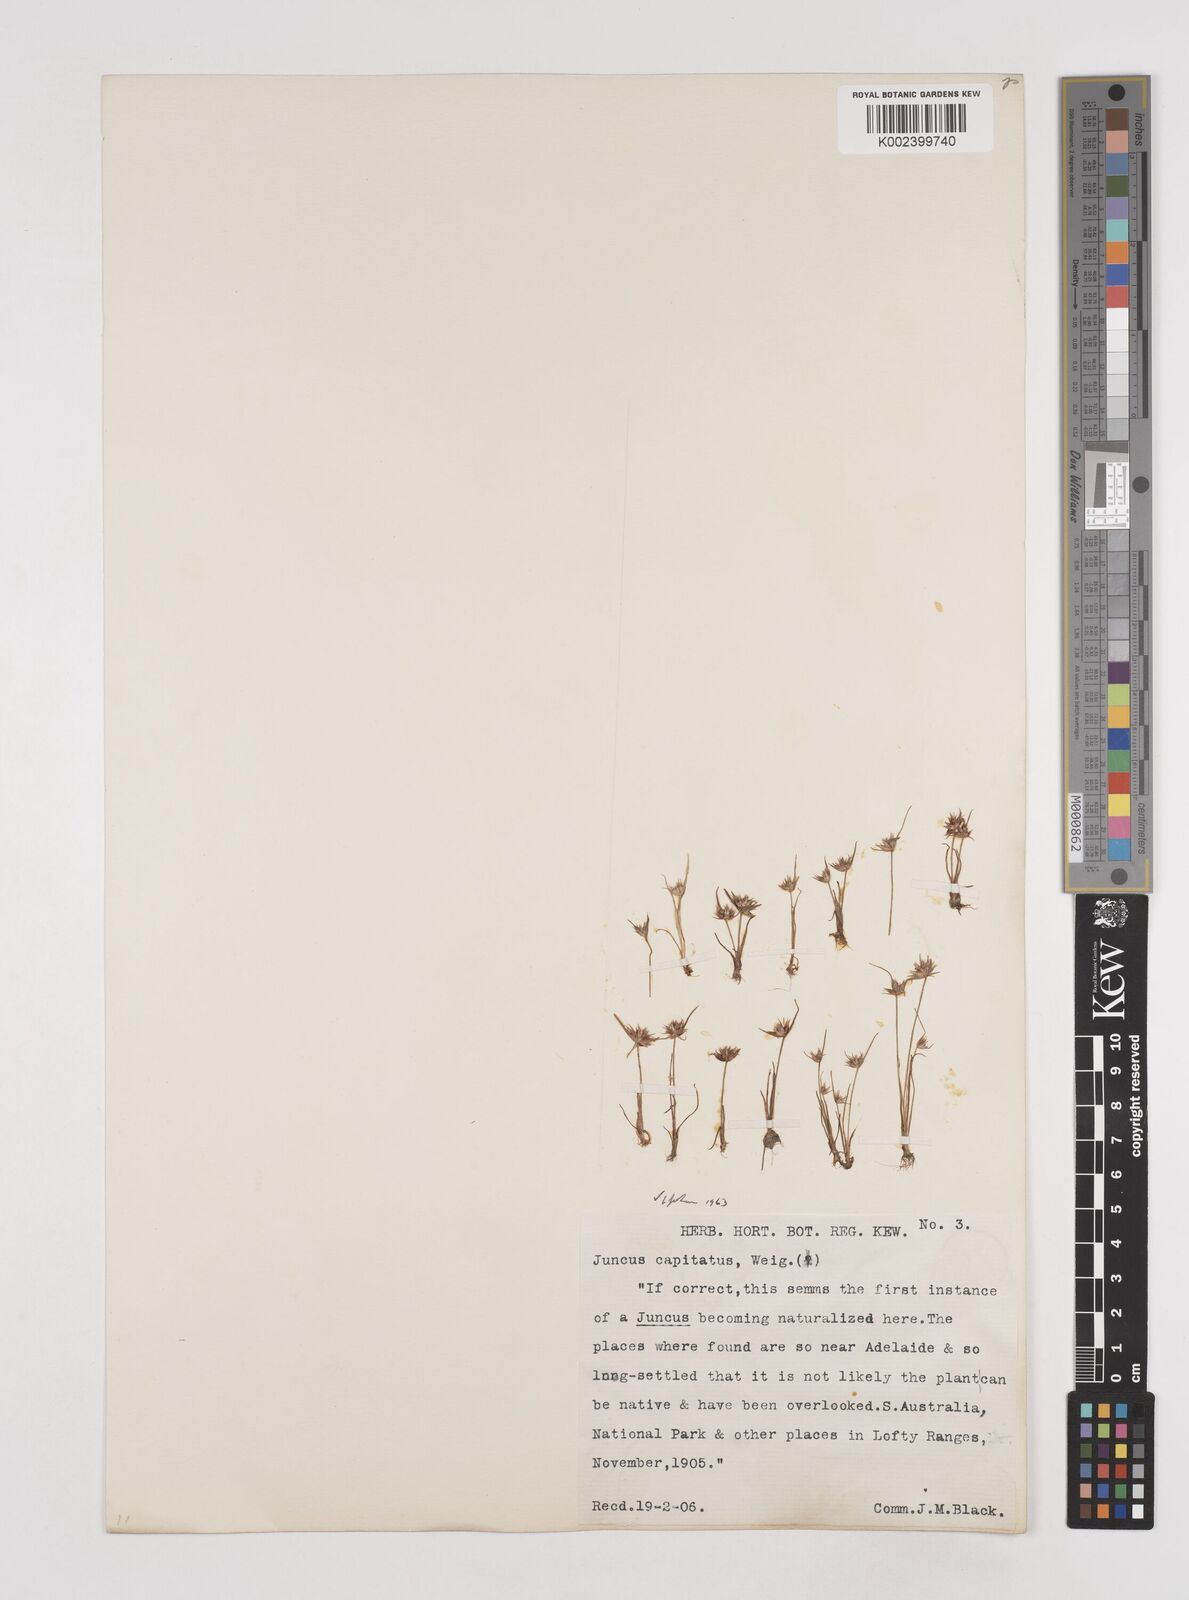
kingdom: Plantae
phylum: Tracheophyta
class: Liliopsida
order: Poales
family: Juncaceae
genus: Juncus
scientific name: Juncus capitatus
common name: Dwarf rush
